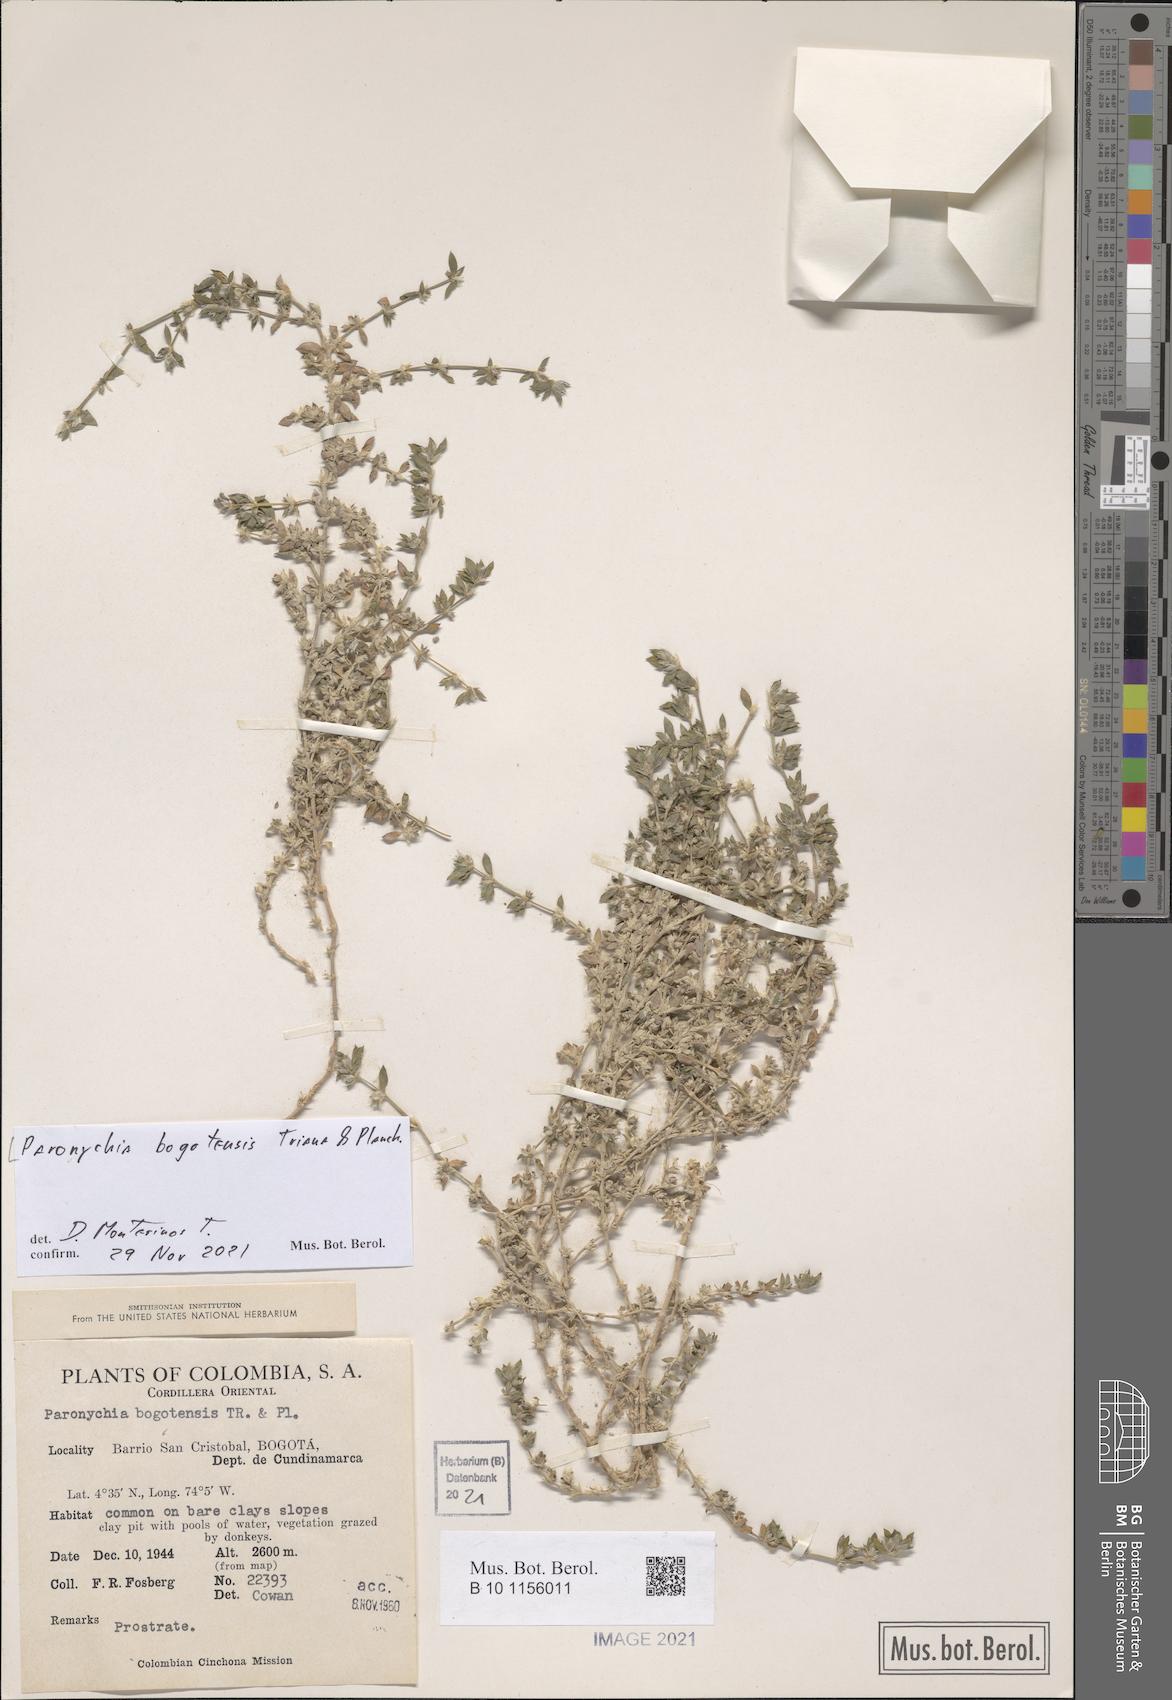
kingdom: Plantae
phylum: Tracheophyta
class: Magnoliopsida
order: Caryophyllales
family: Caryophyllaceae
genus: Paronychia
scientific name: Paronychia bogotensis
